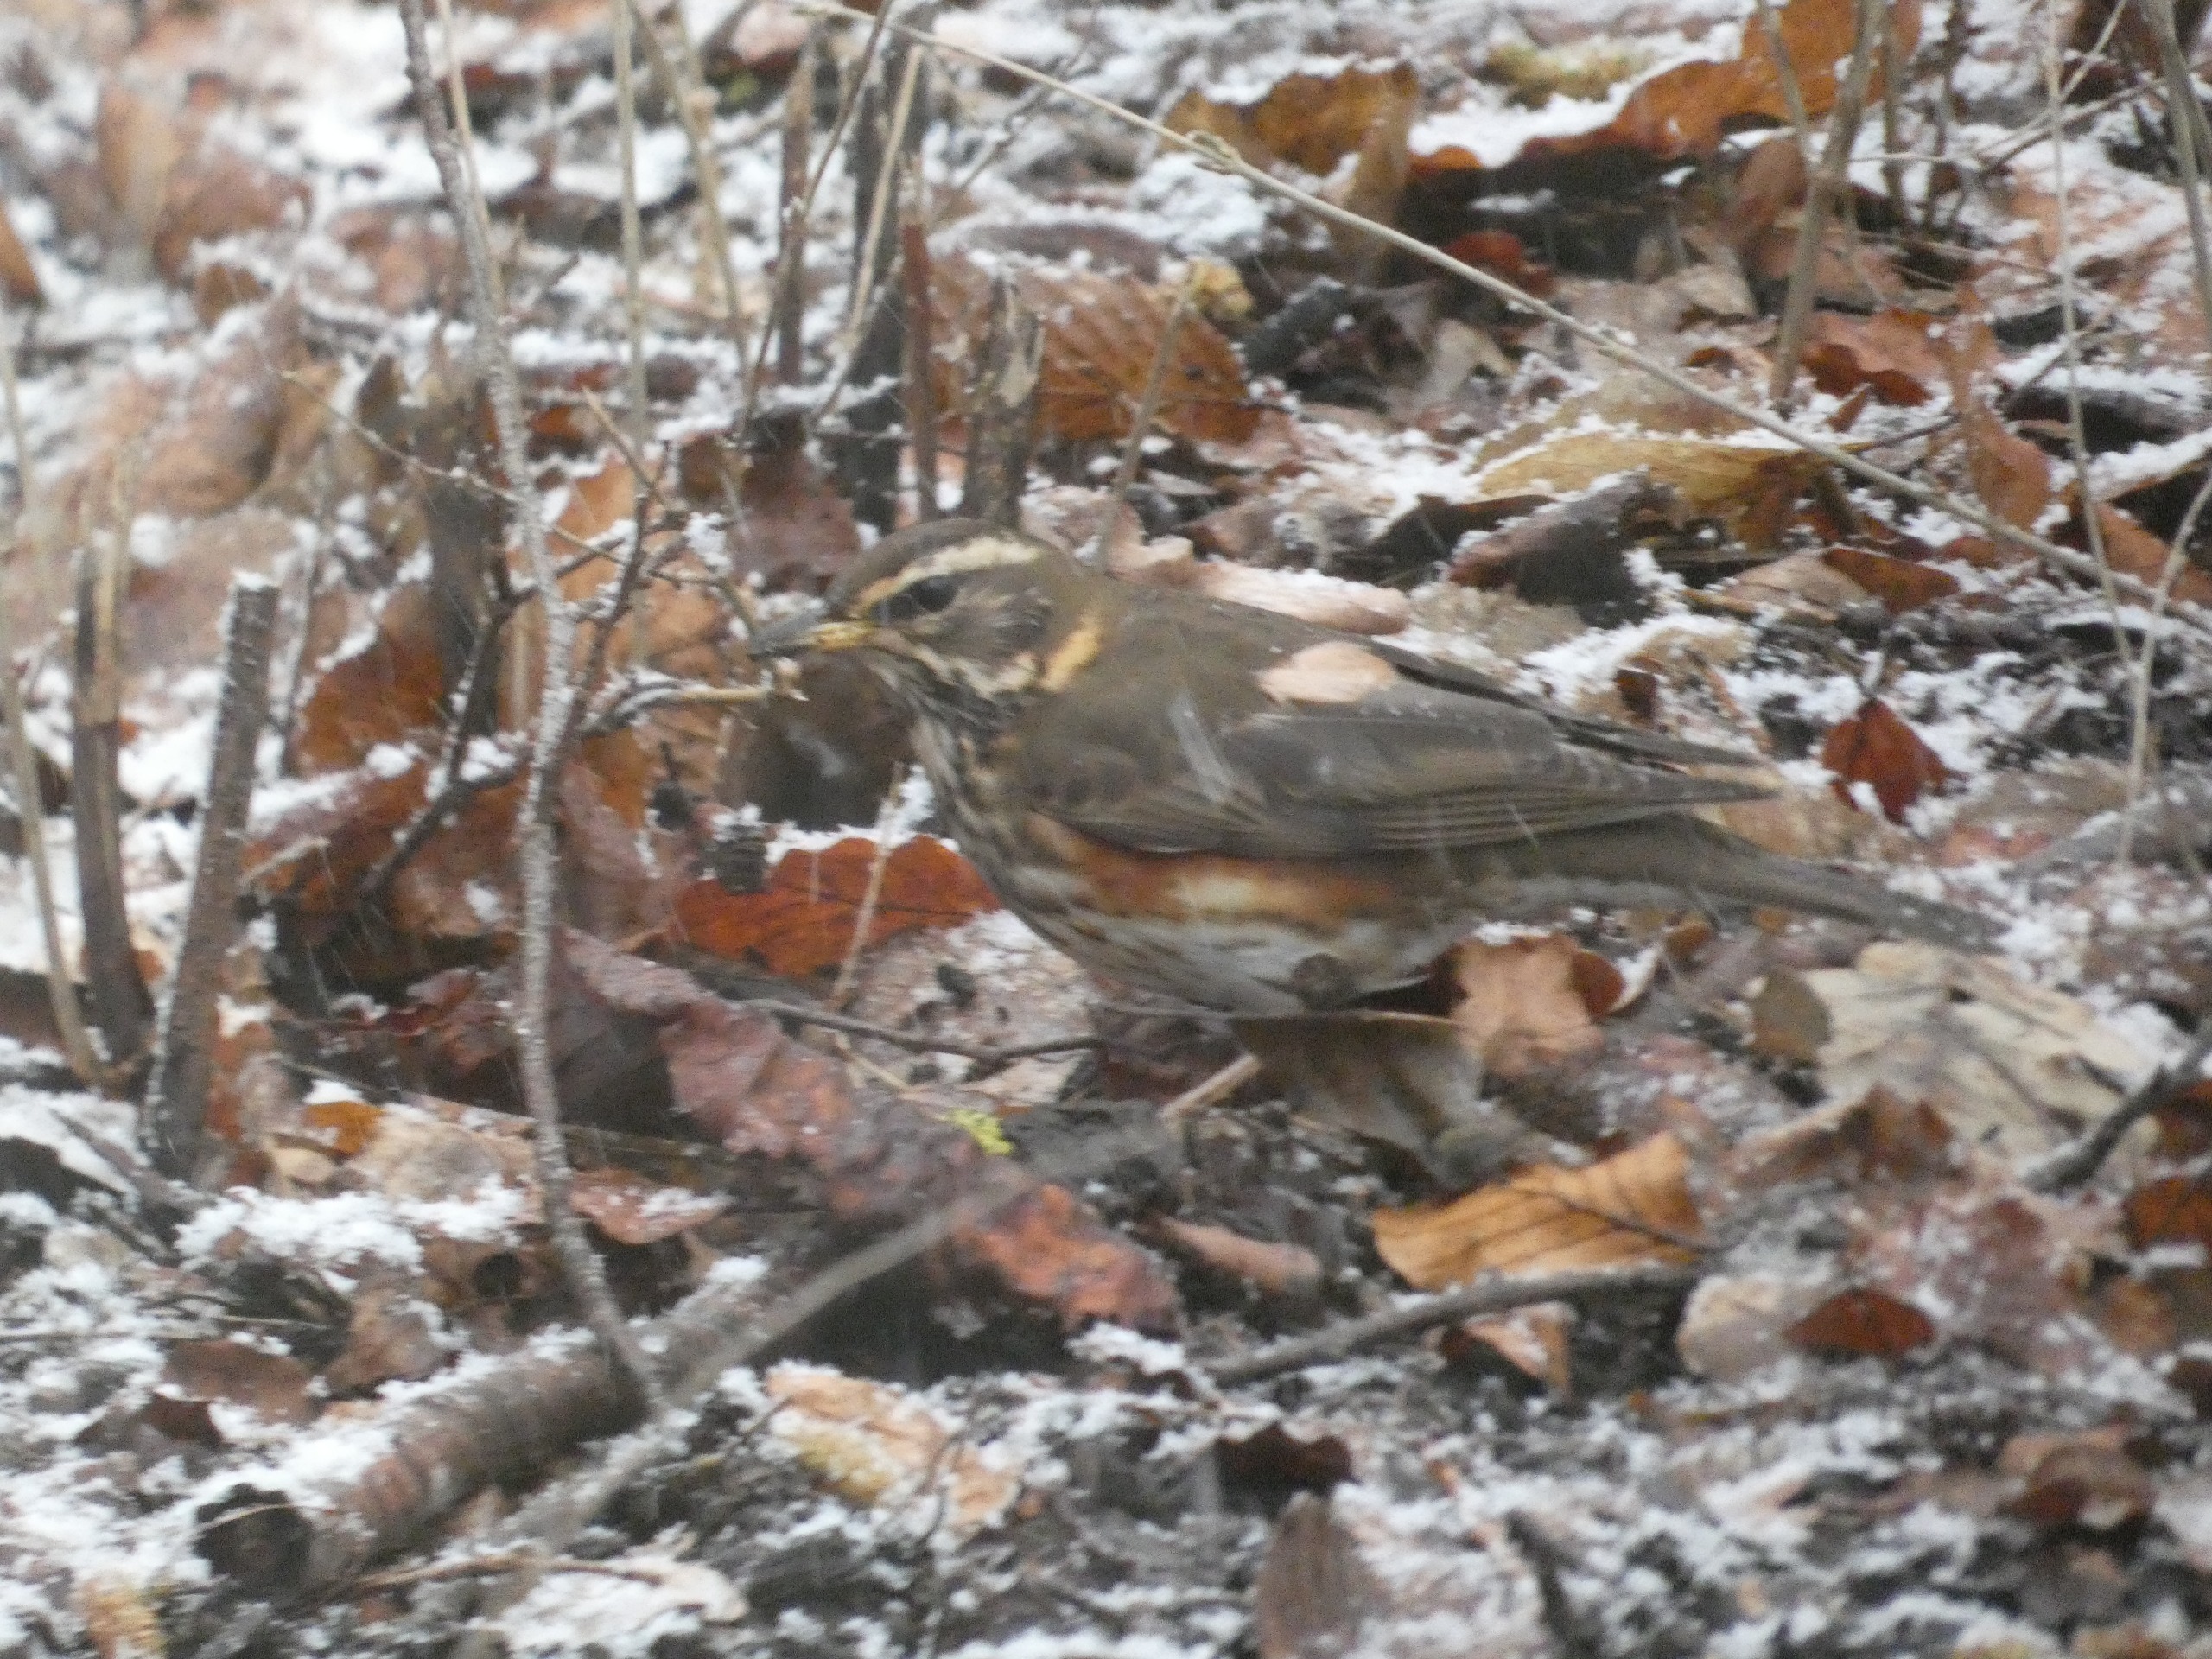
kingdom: Animalia
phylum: Chordata
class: Aves
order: Passeriformes
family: Turdidae
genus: Turdus
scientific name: Turdus iliacus
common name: Vindrossel
